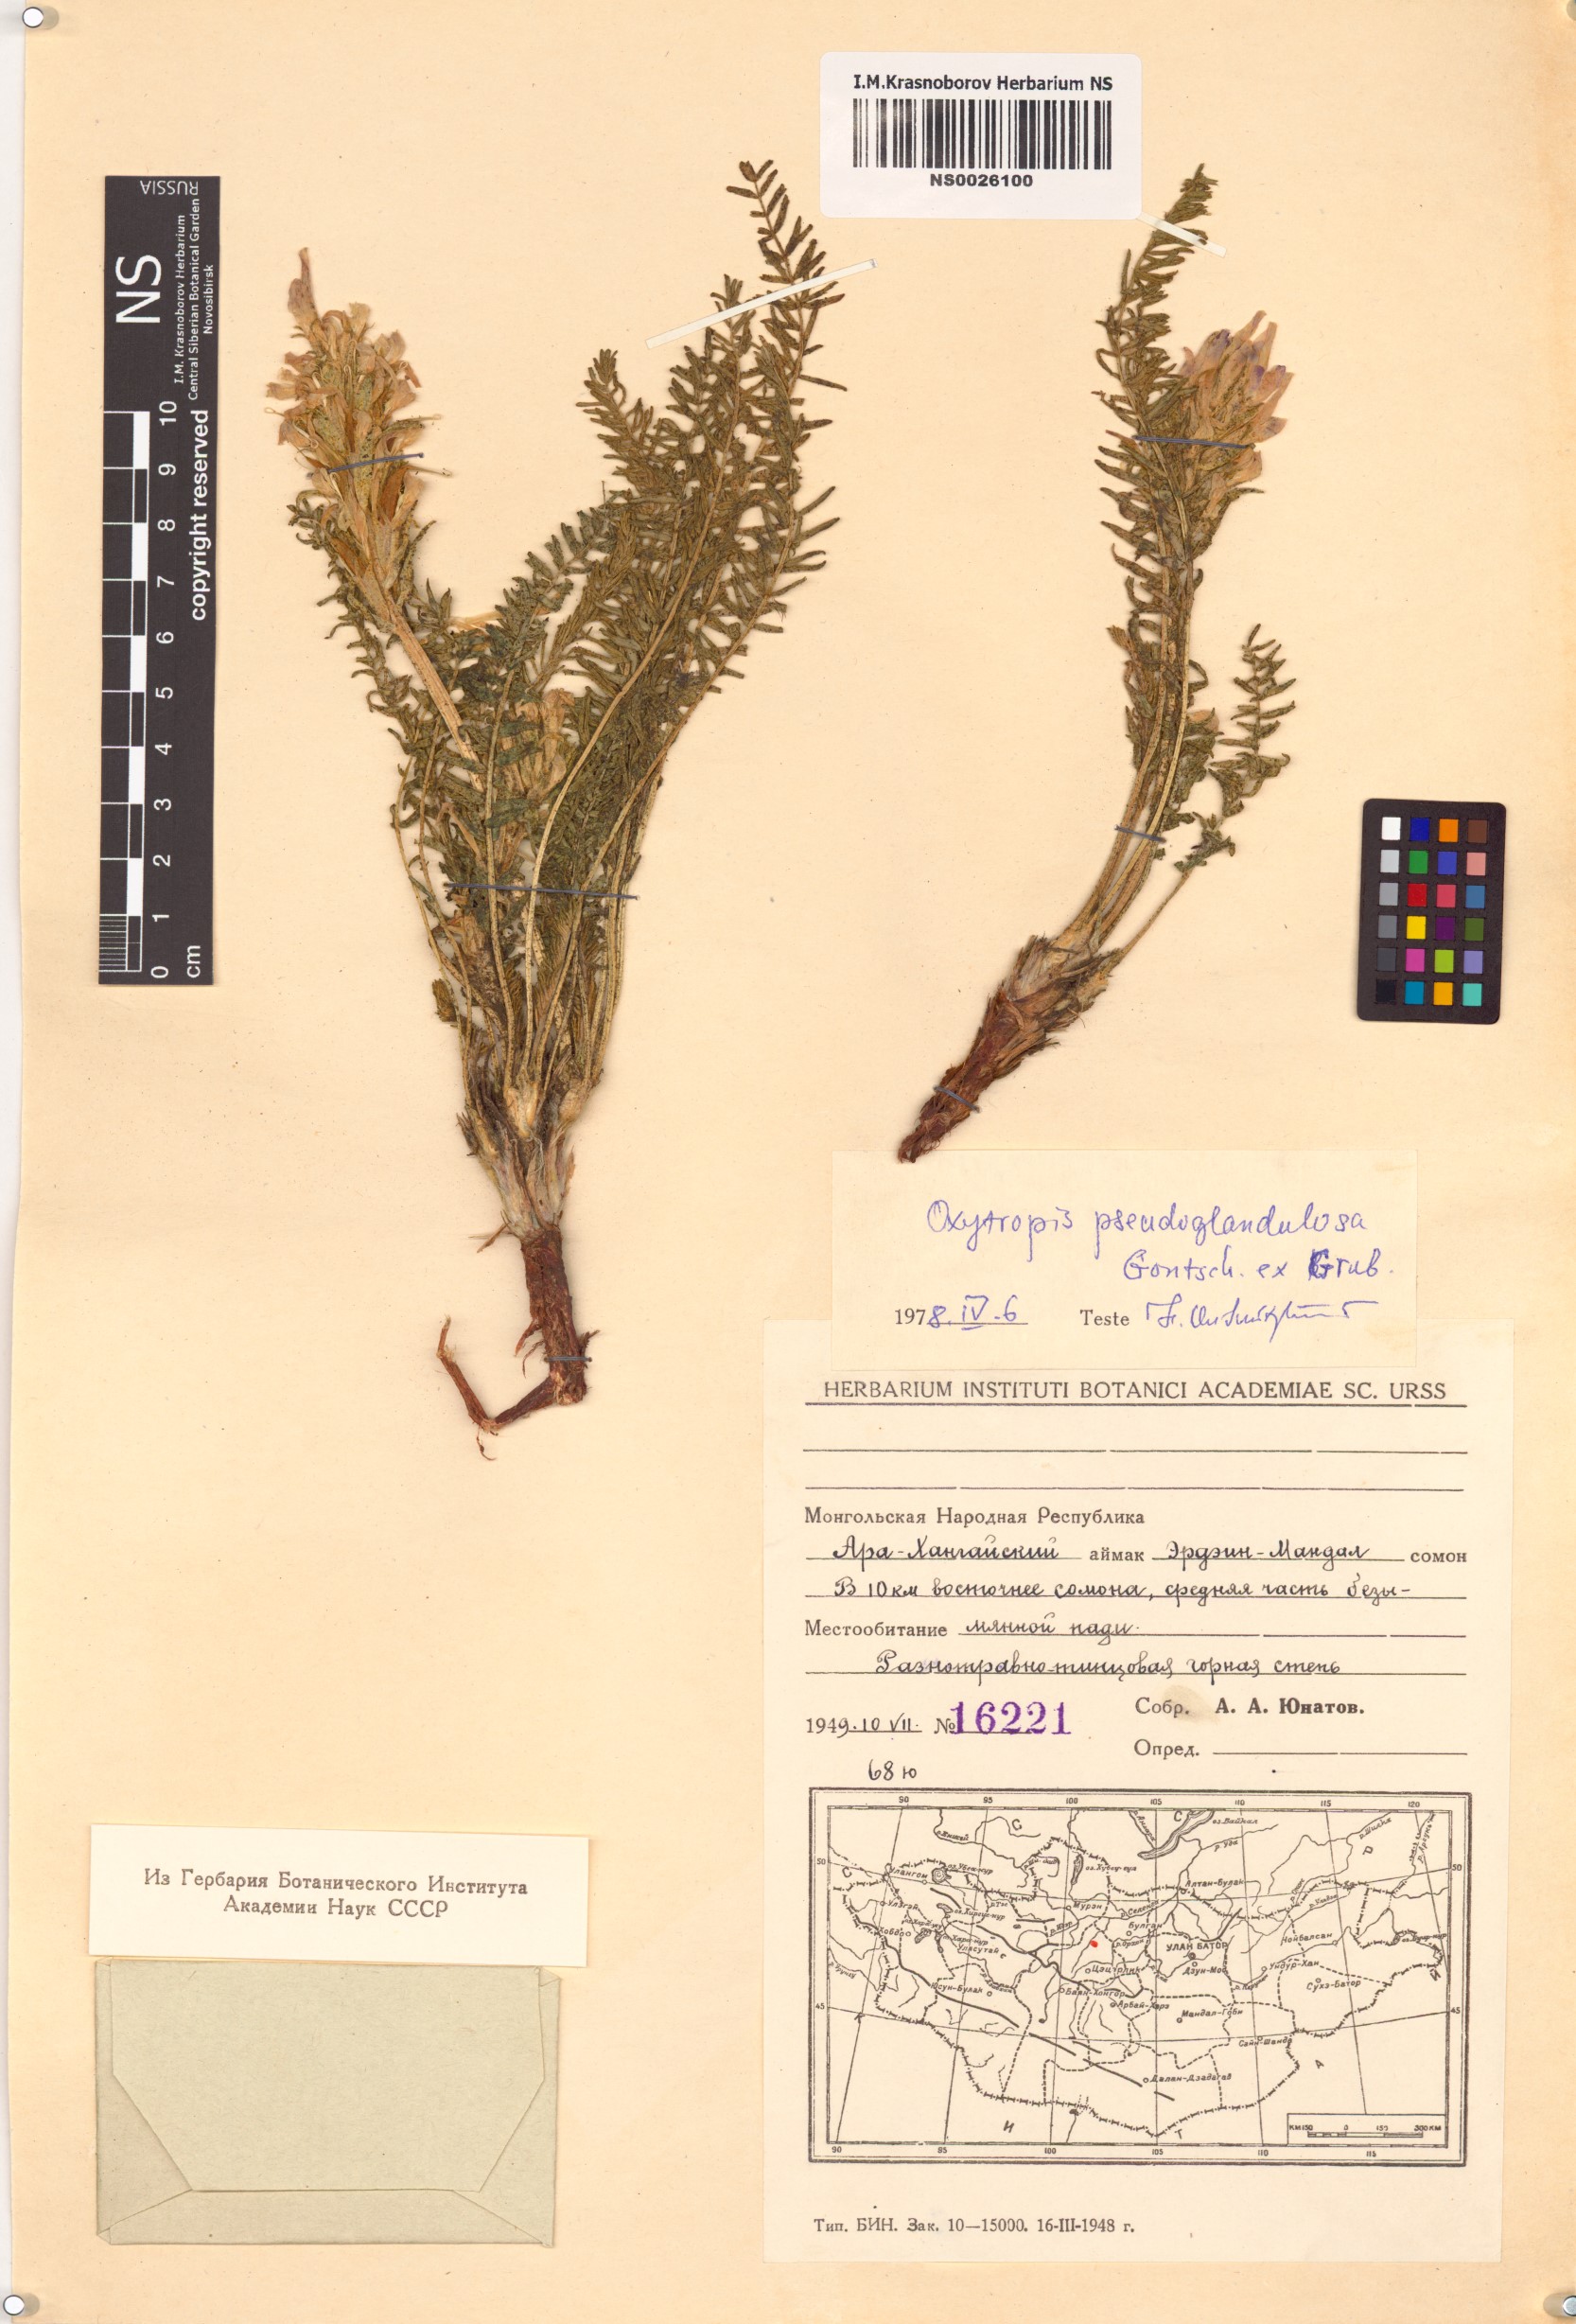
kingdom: Plantae
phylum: Tracheophyta
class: Magnoliopsida
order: Fabales
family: Fabaceae
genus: Oxytropis
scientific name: Oxytropis pseudoglandulosa
